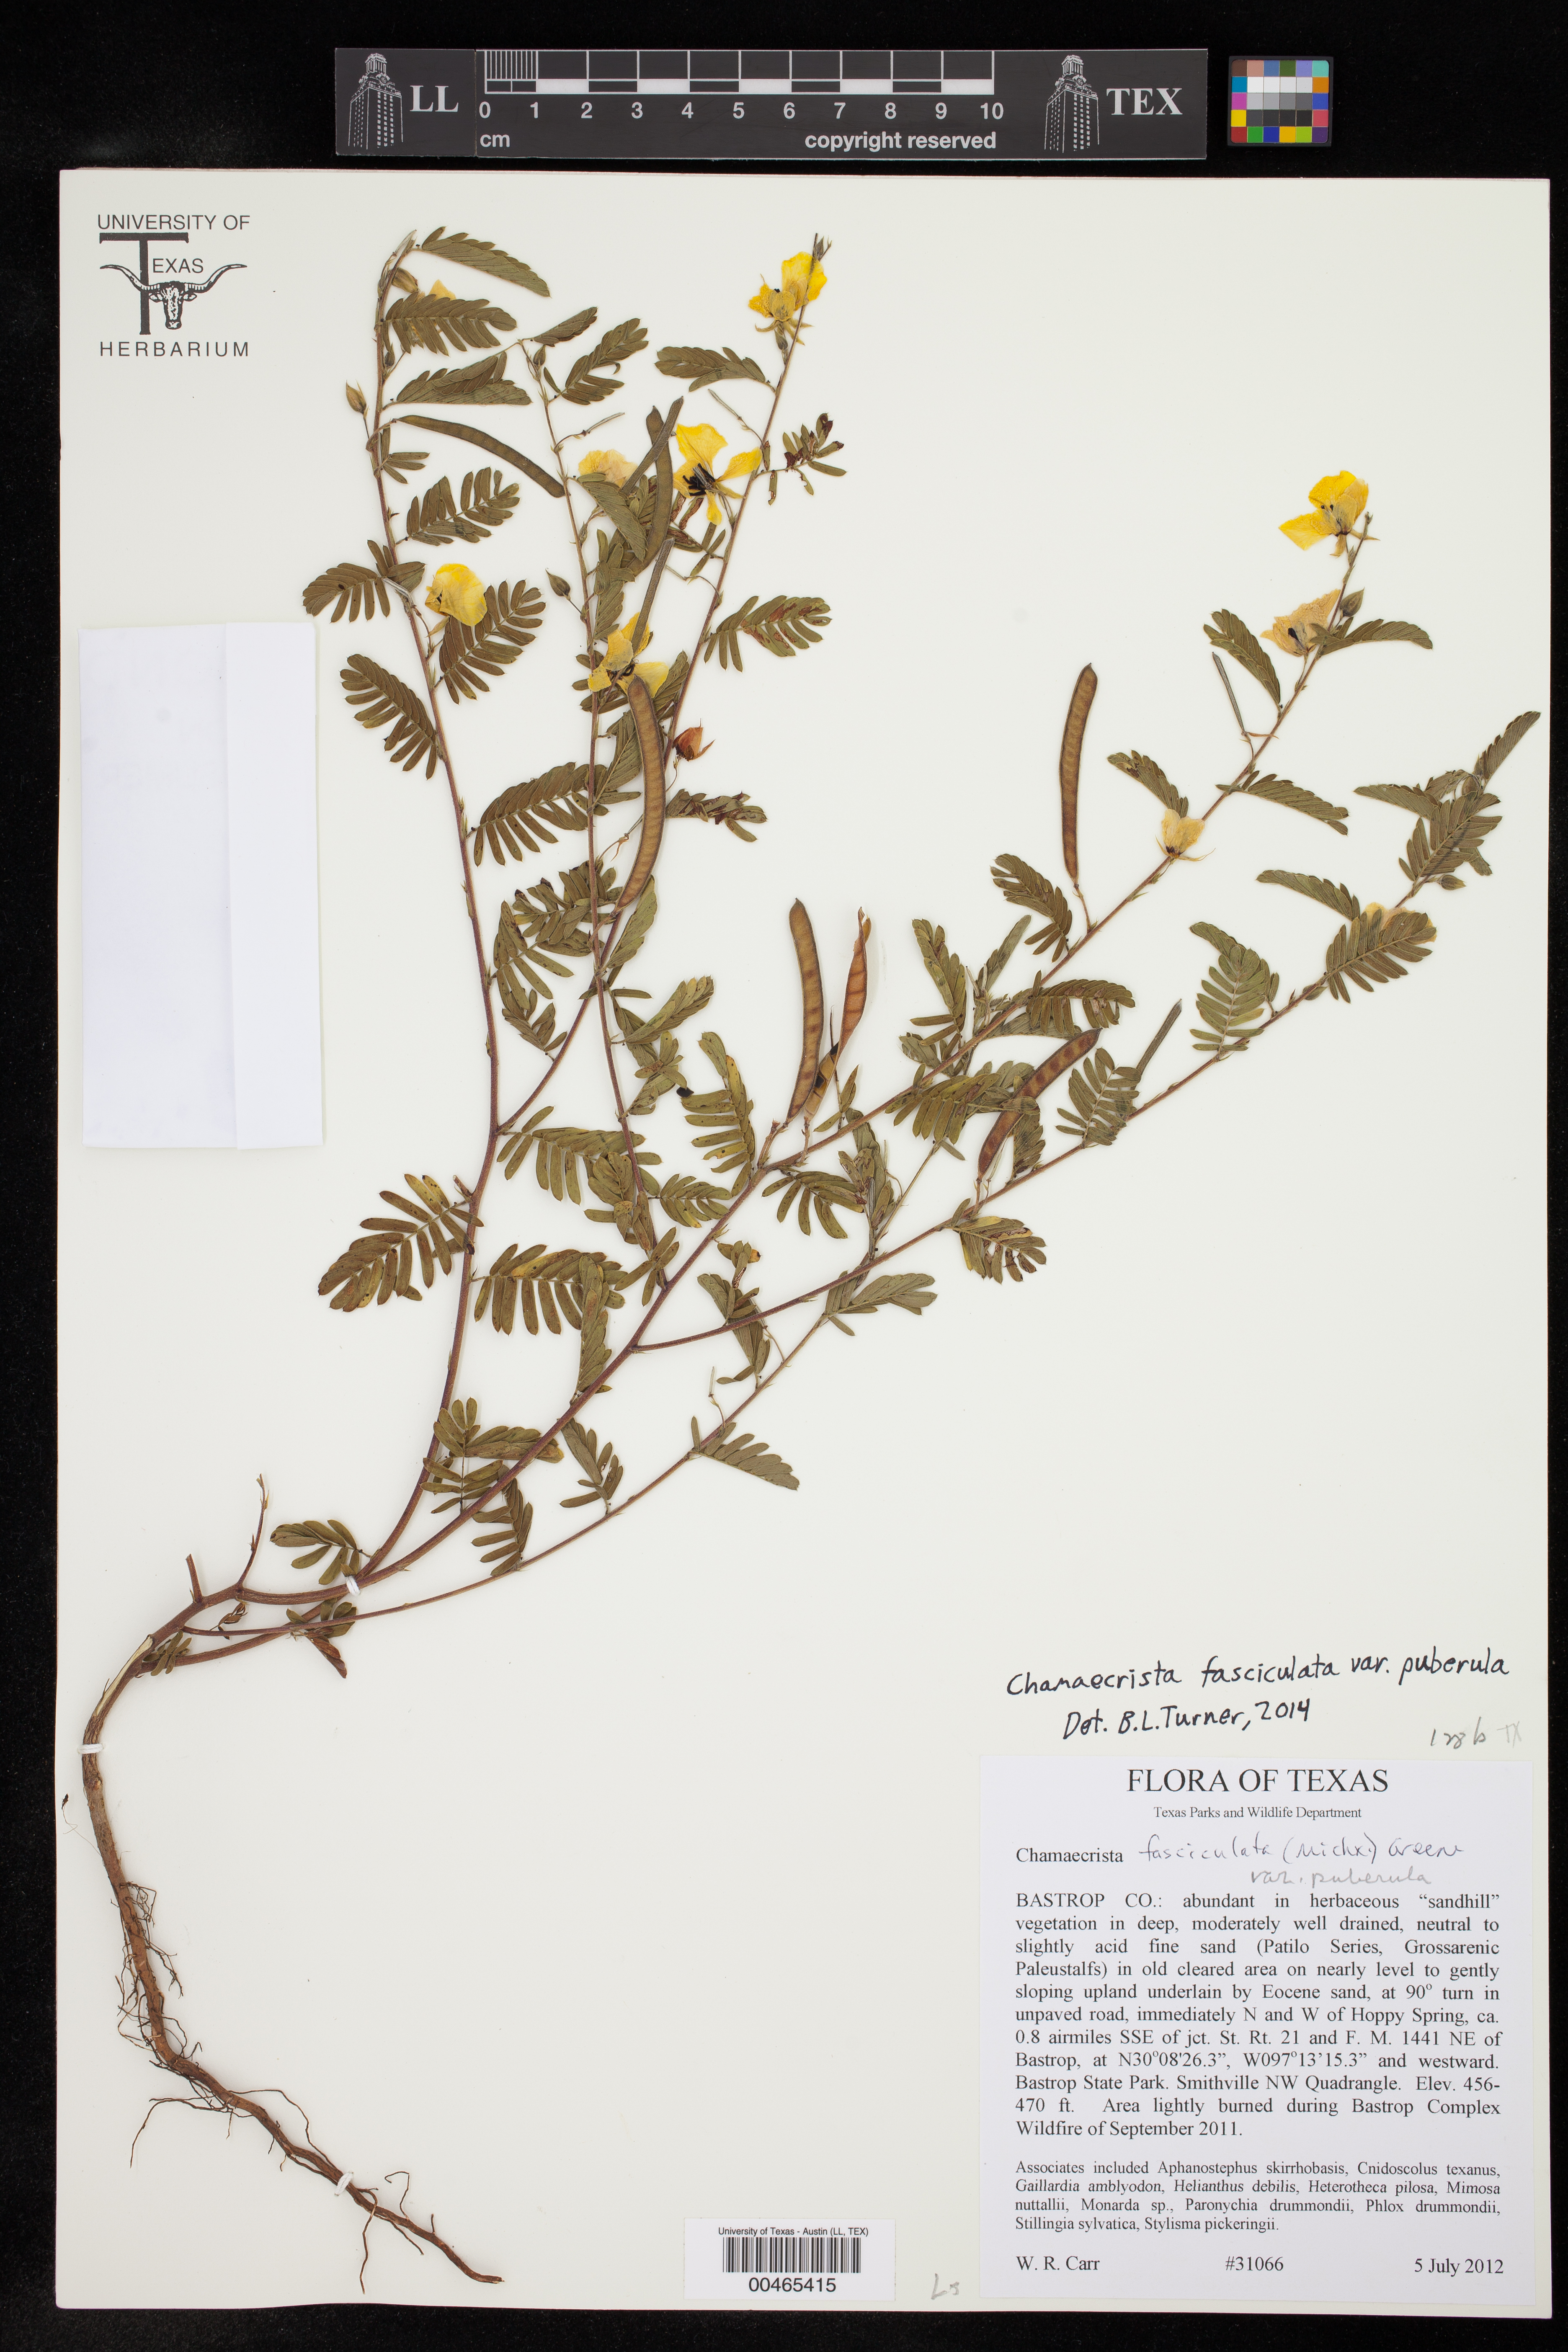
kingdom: Plantae
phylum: Tracheophyta
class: Magnoliopsida
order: Fabales
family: Fabaceae
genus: Chamaecrista
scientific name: Chamaecrista fasciculata
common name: Golden cassia
